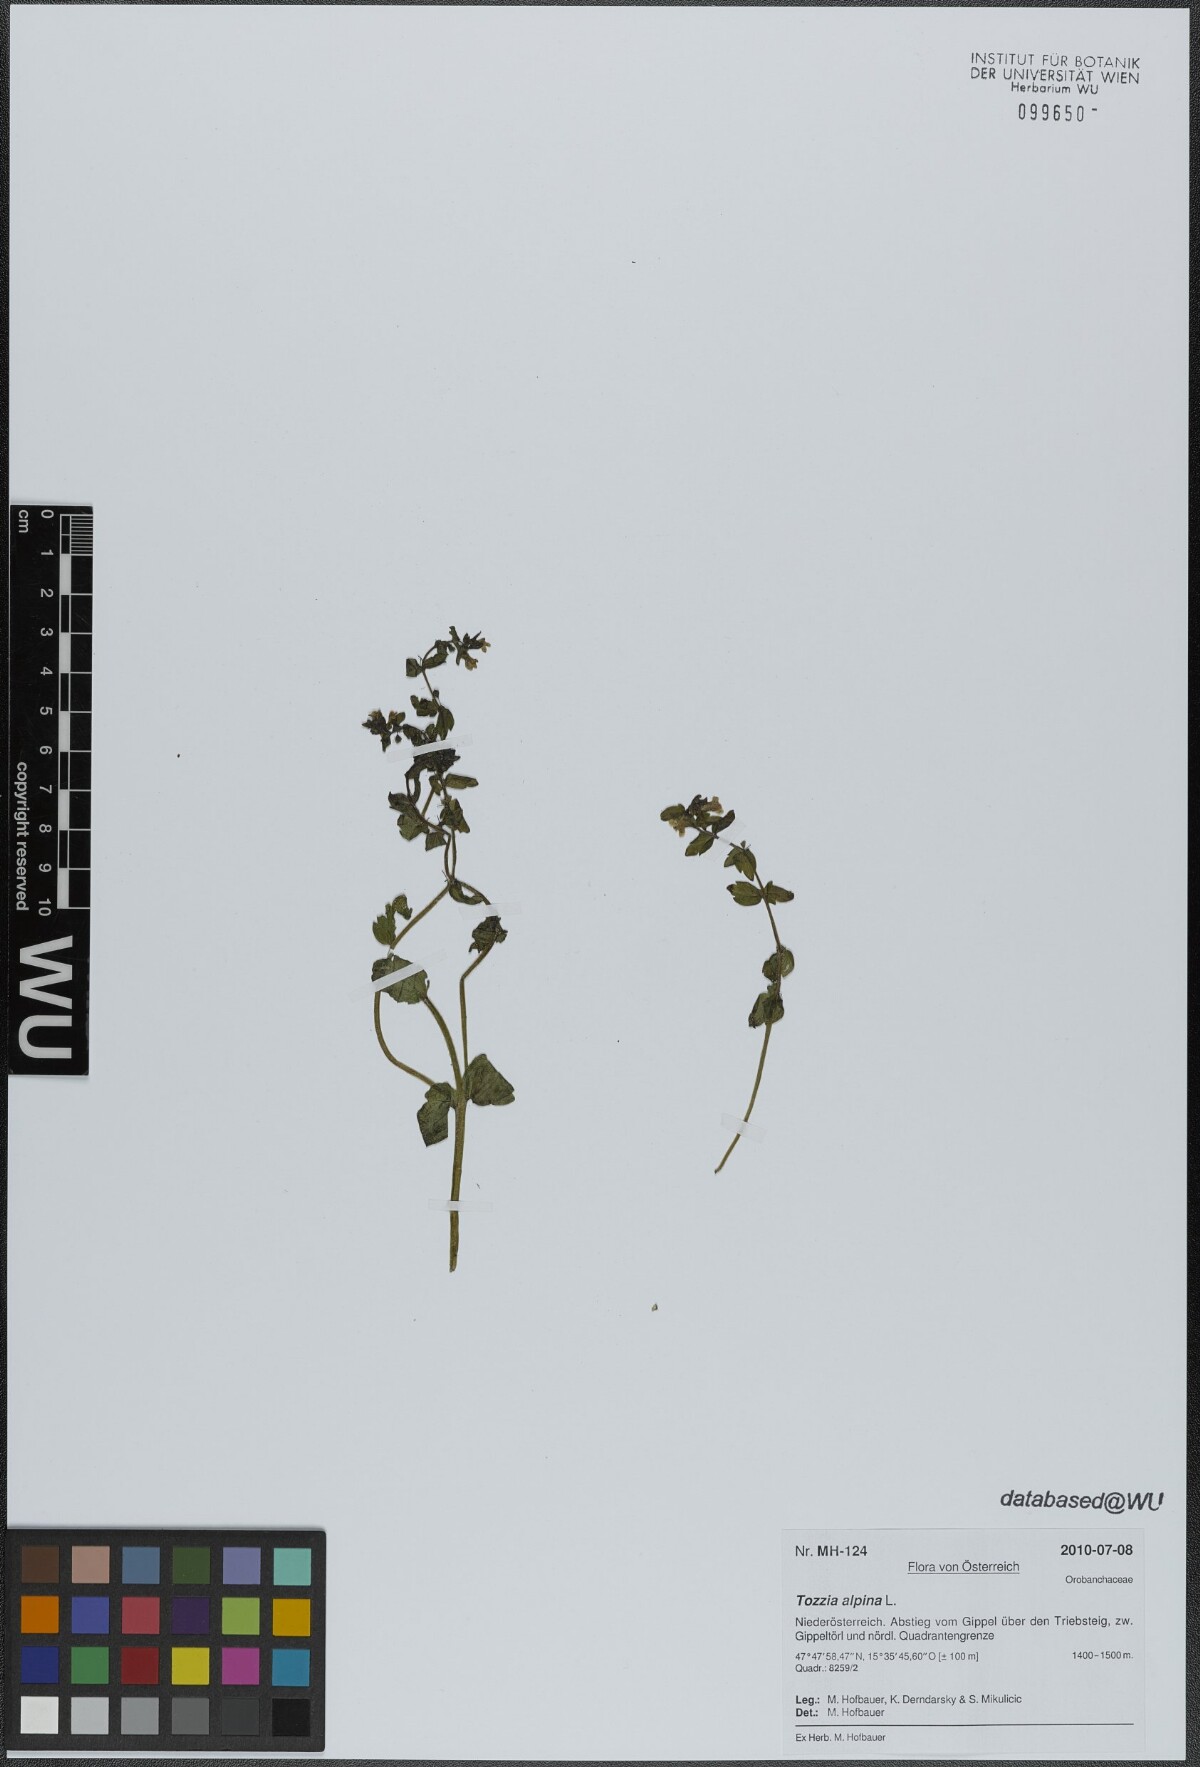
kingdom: Plantae
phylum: Tracheophyta
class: Magnoliopsida
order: Lamiales
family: Orobanchaceae
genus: Tozzia
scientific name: Tozzia alpina
